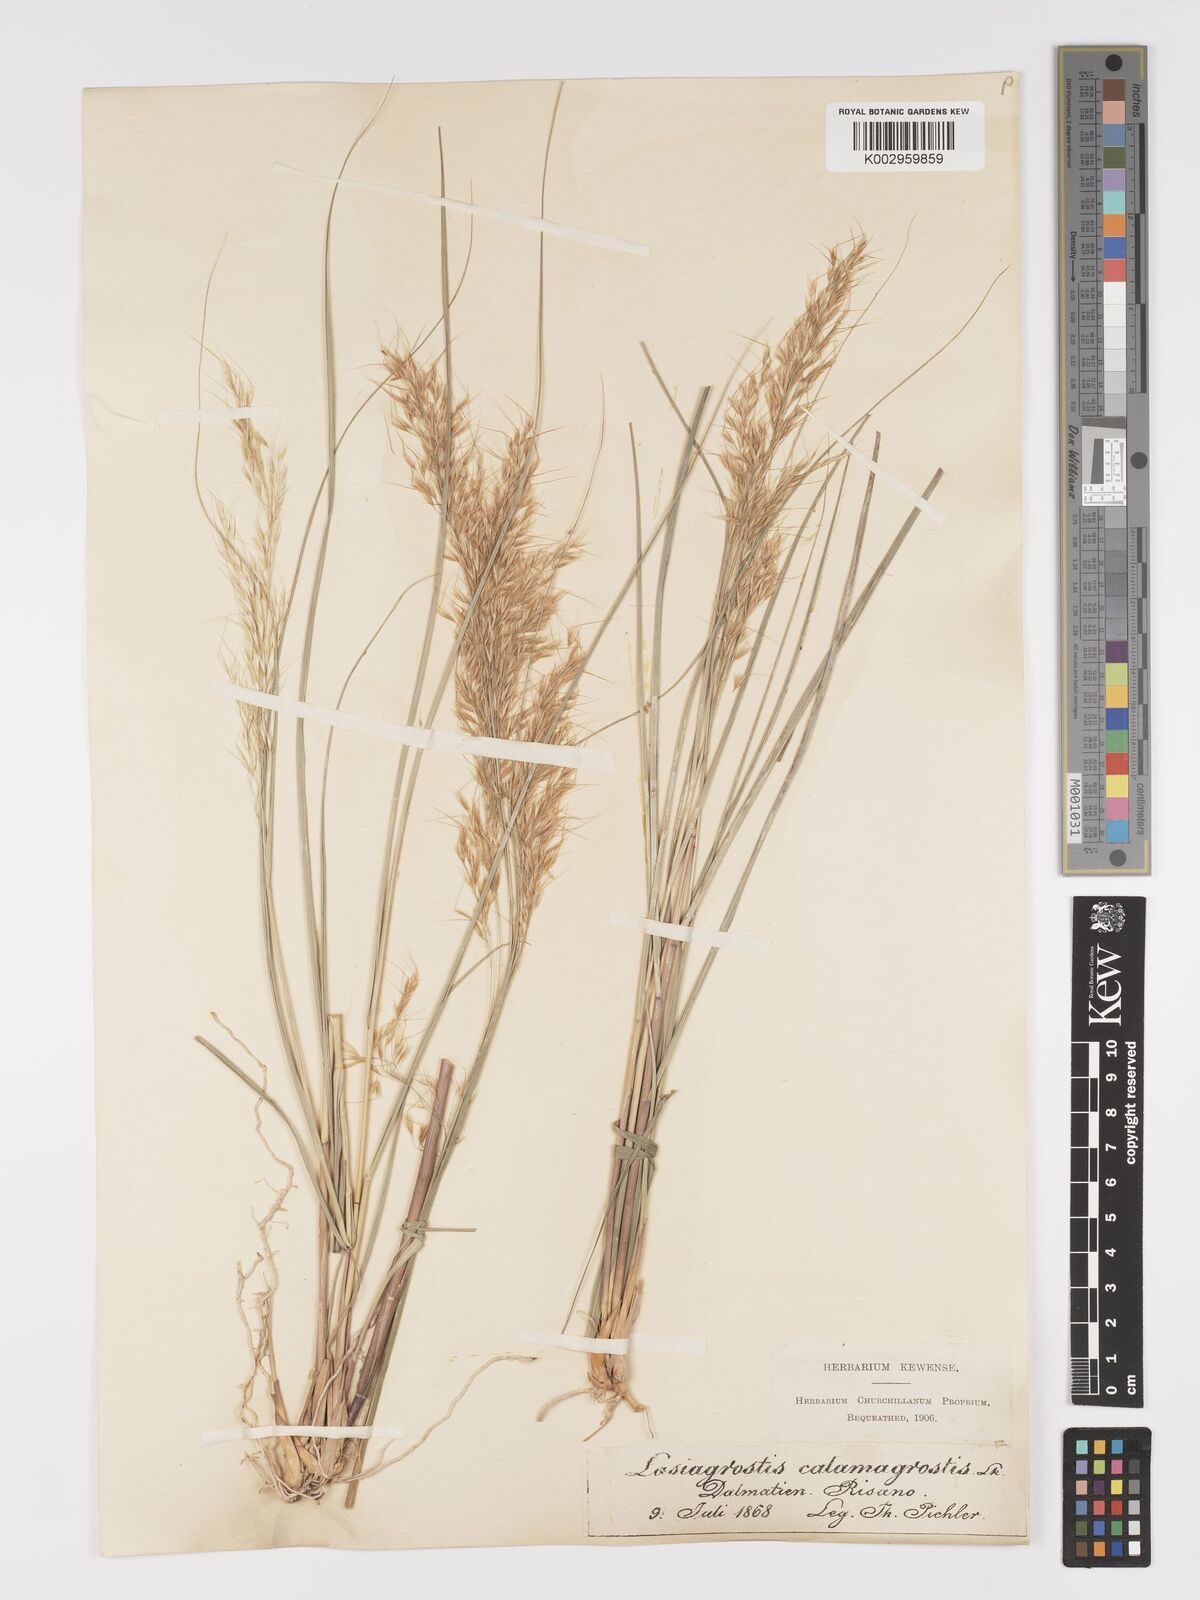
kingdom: Plantae
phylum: Tracheophyta
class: Liliopsida
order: Poales
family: Poaceae
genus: Achnatherum
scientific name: Achnatherum calamagrostis
